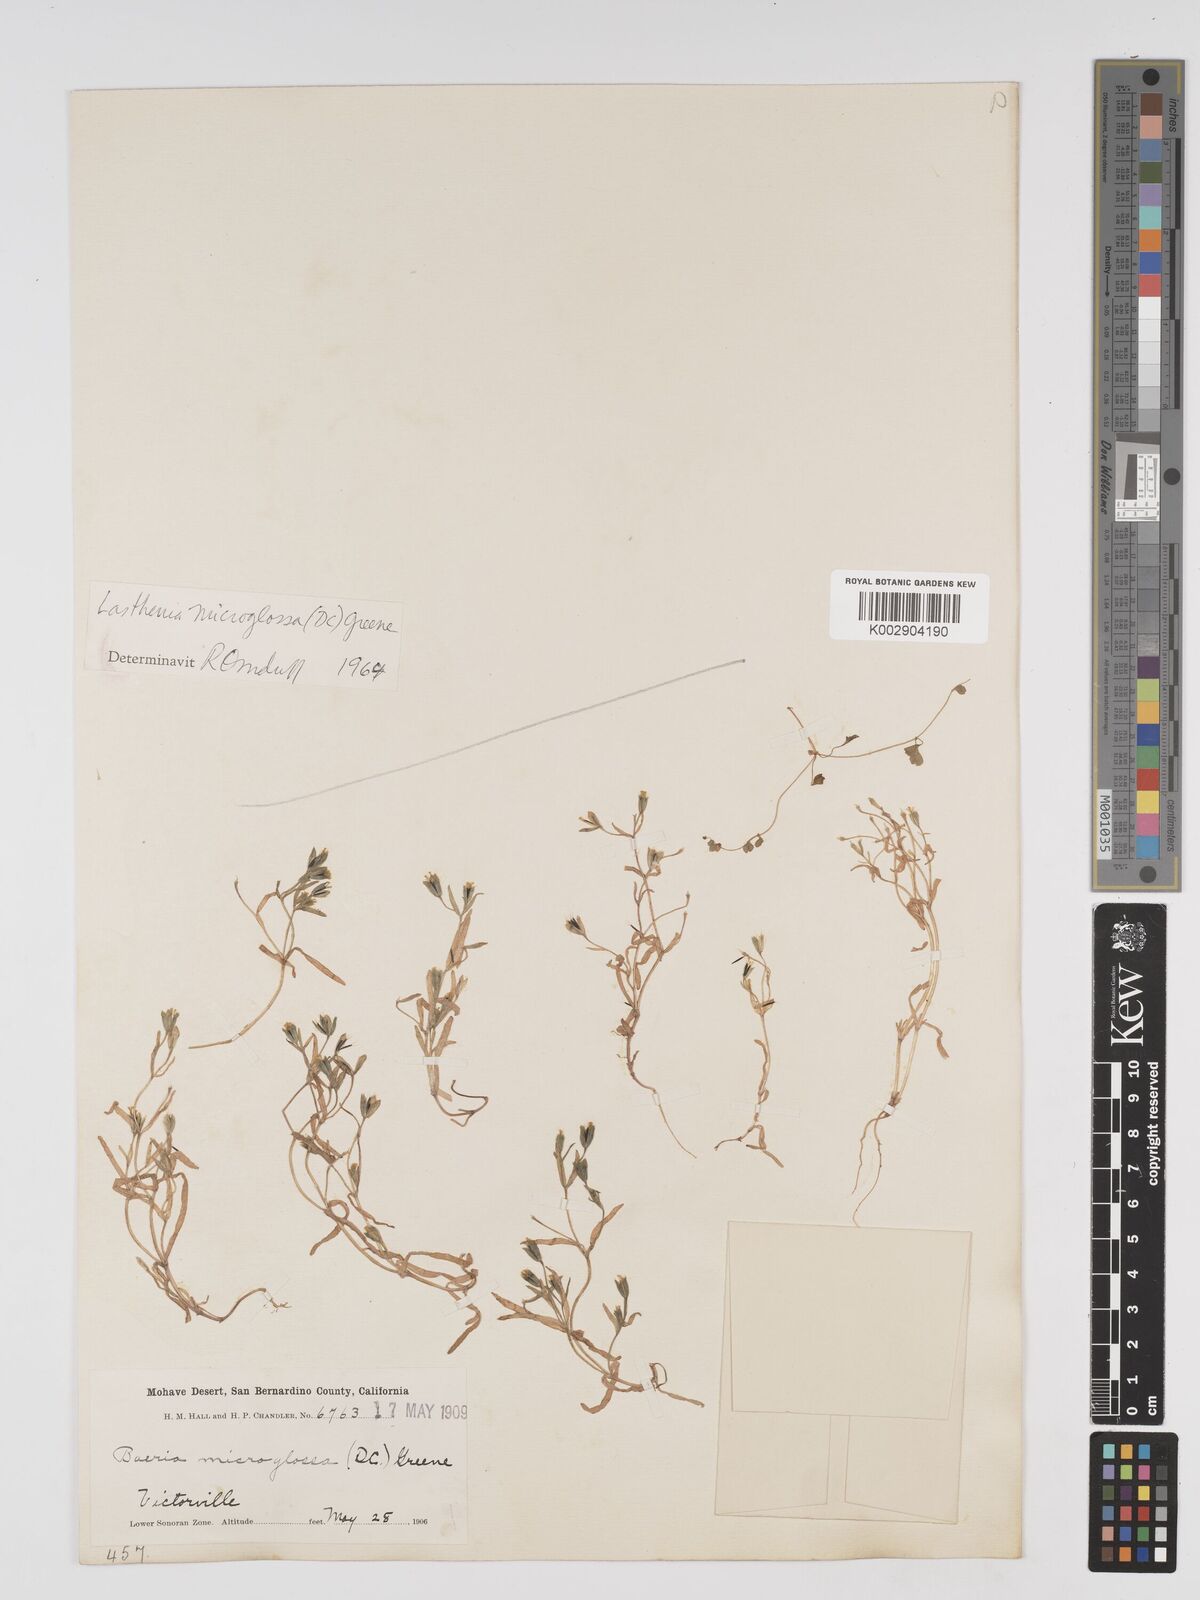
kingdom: Plantae
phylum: Tracheophyta
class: Magnoliopsida
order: Asterales
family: Asteraceae
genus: Lasthenia
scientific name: Lasthenia microglossa
